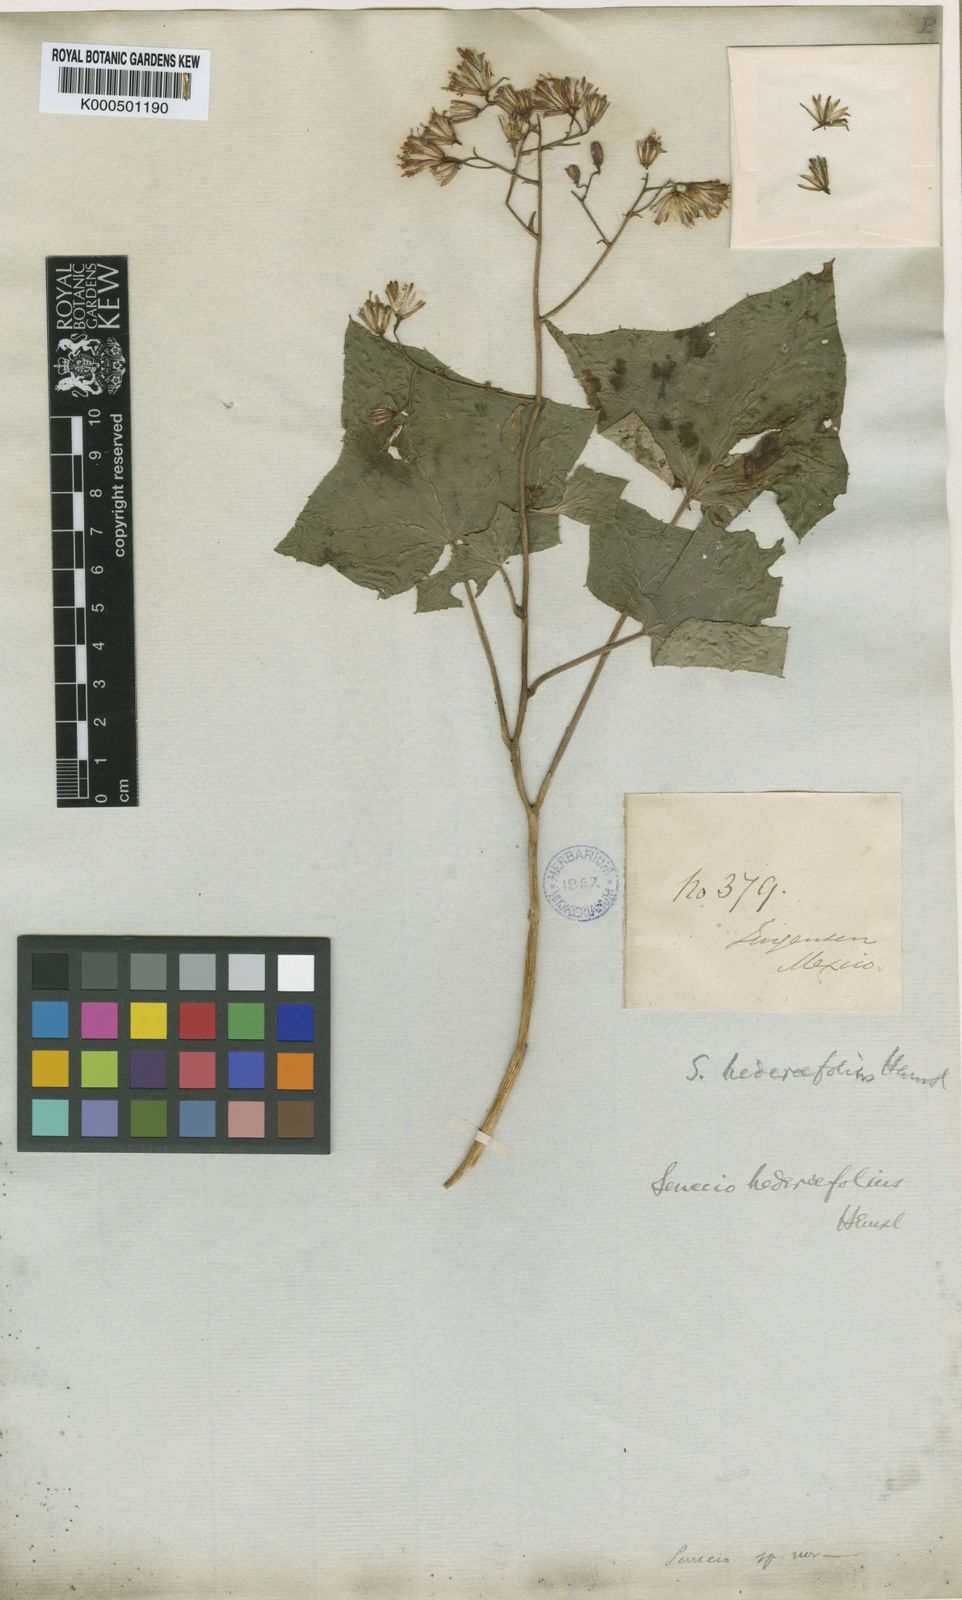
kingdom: Plantae
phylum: Tracheophyta
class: Magnoliopsida
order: Asterales
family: Asteraceae
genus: Roldana
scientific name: Roldana hederifolia
